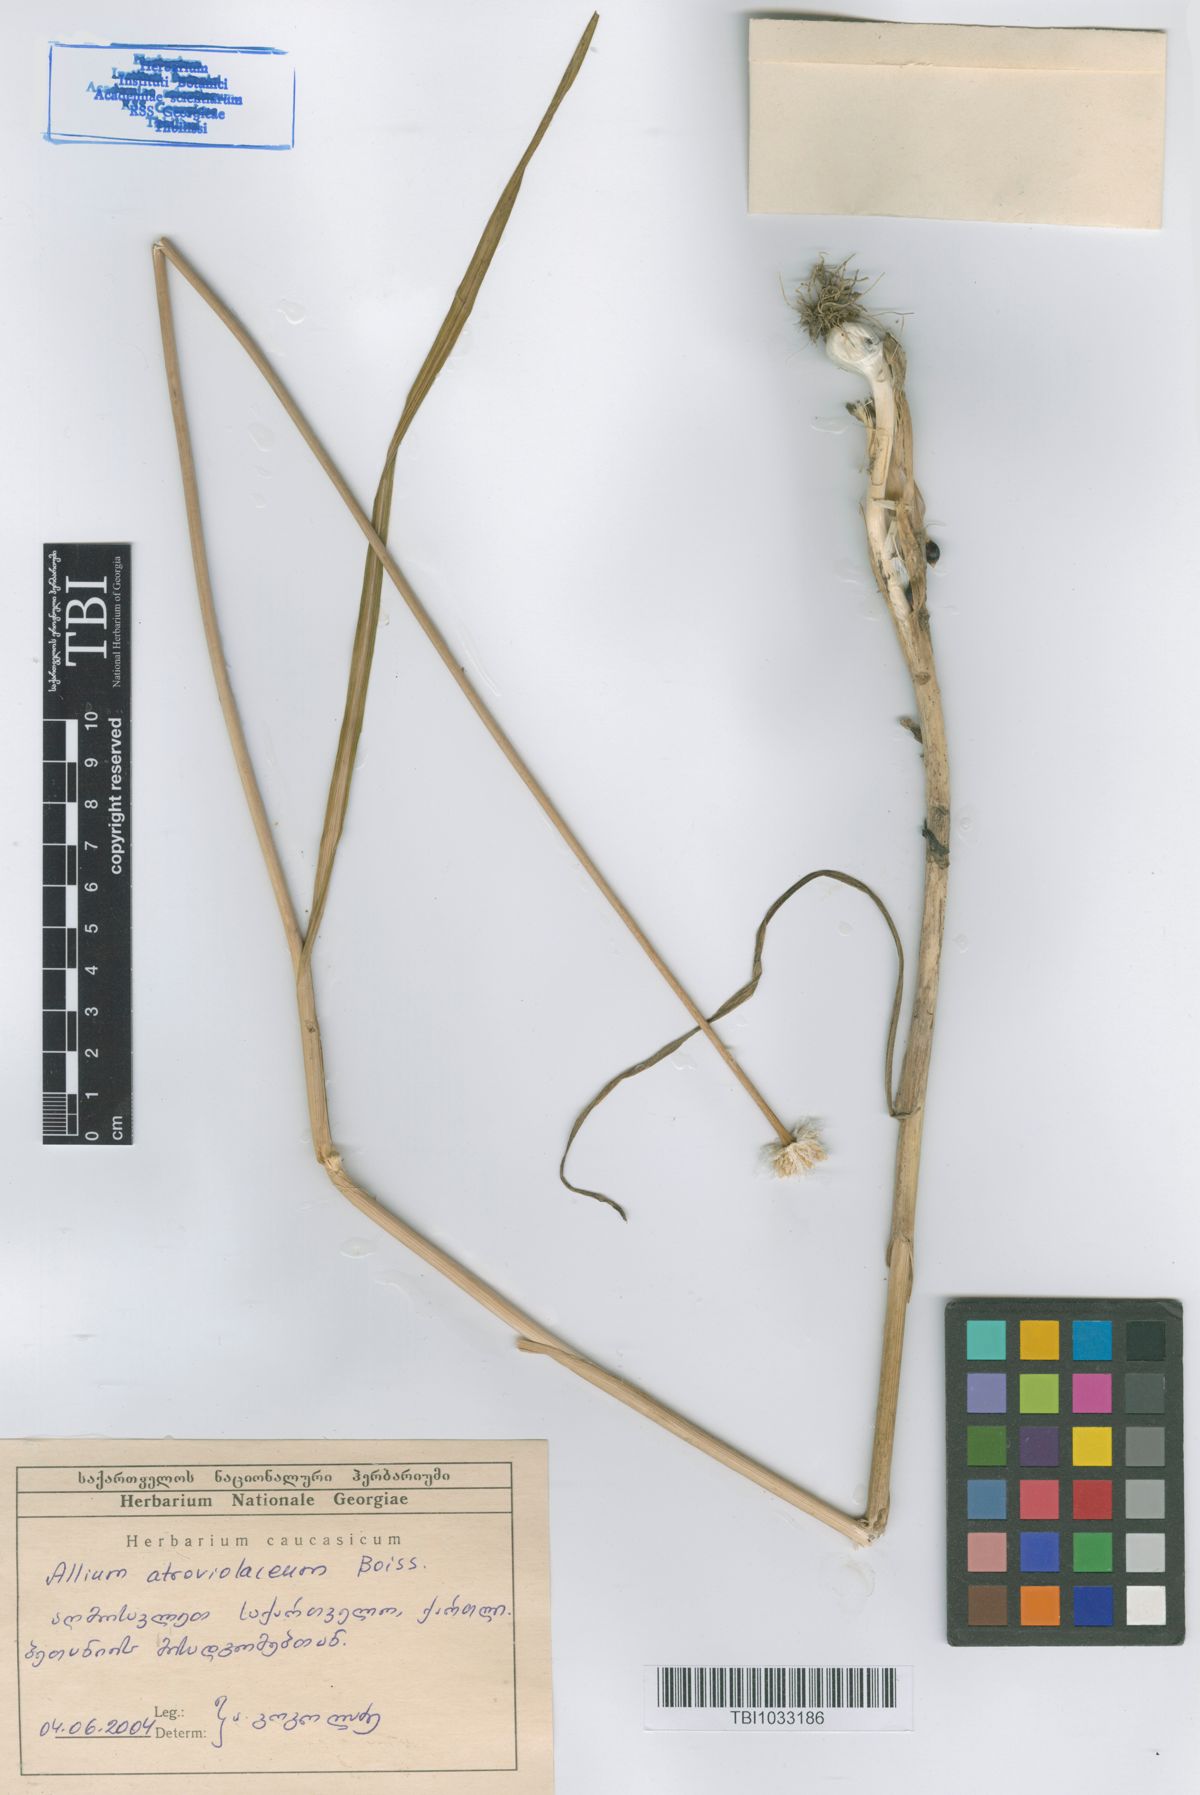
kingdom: Plantae
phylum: Tracheophyta
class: Liliopsida
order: Asparagales
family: Amaryllidaceae
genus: Allium
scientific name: Allium atroviolaceum
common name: Broadleaf wild leek
